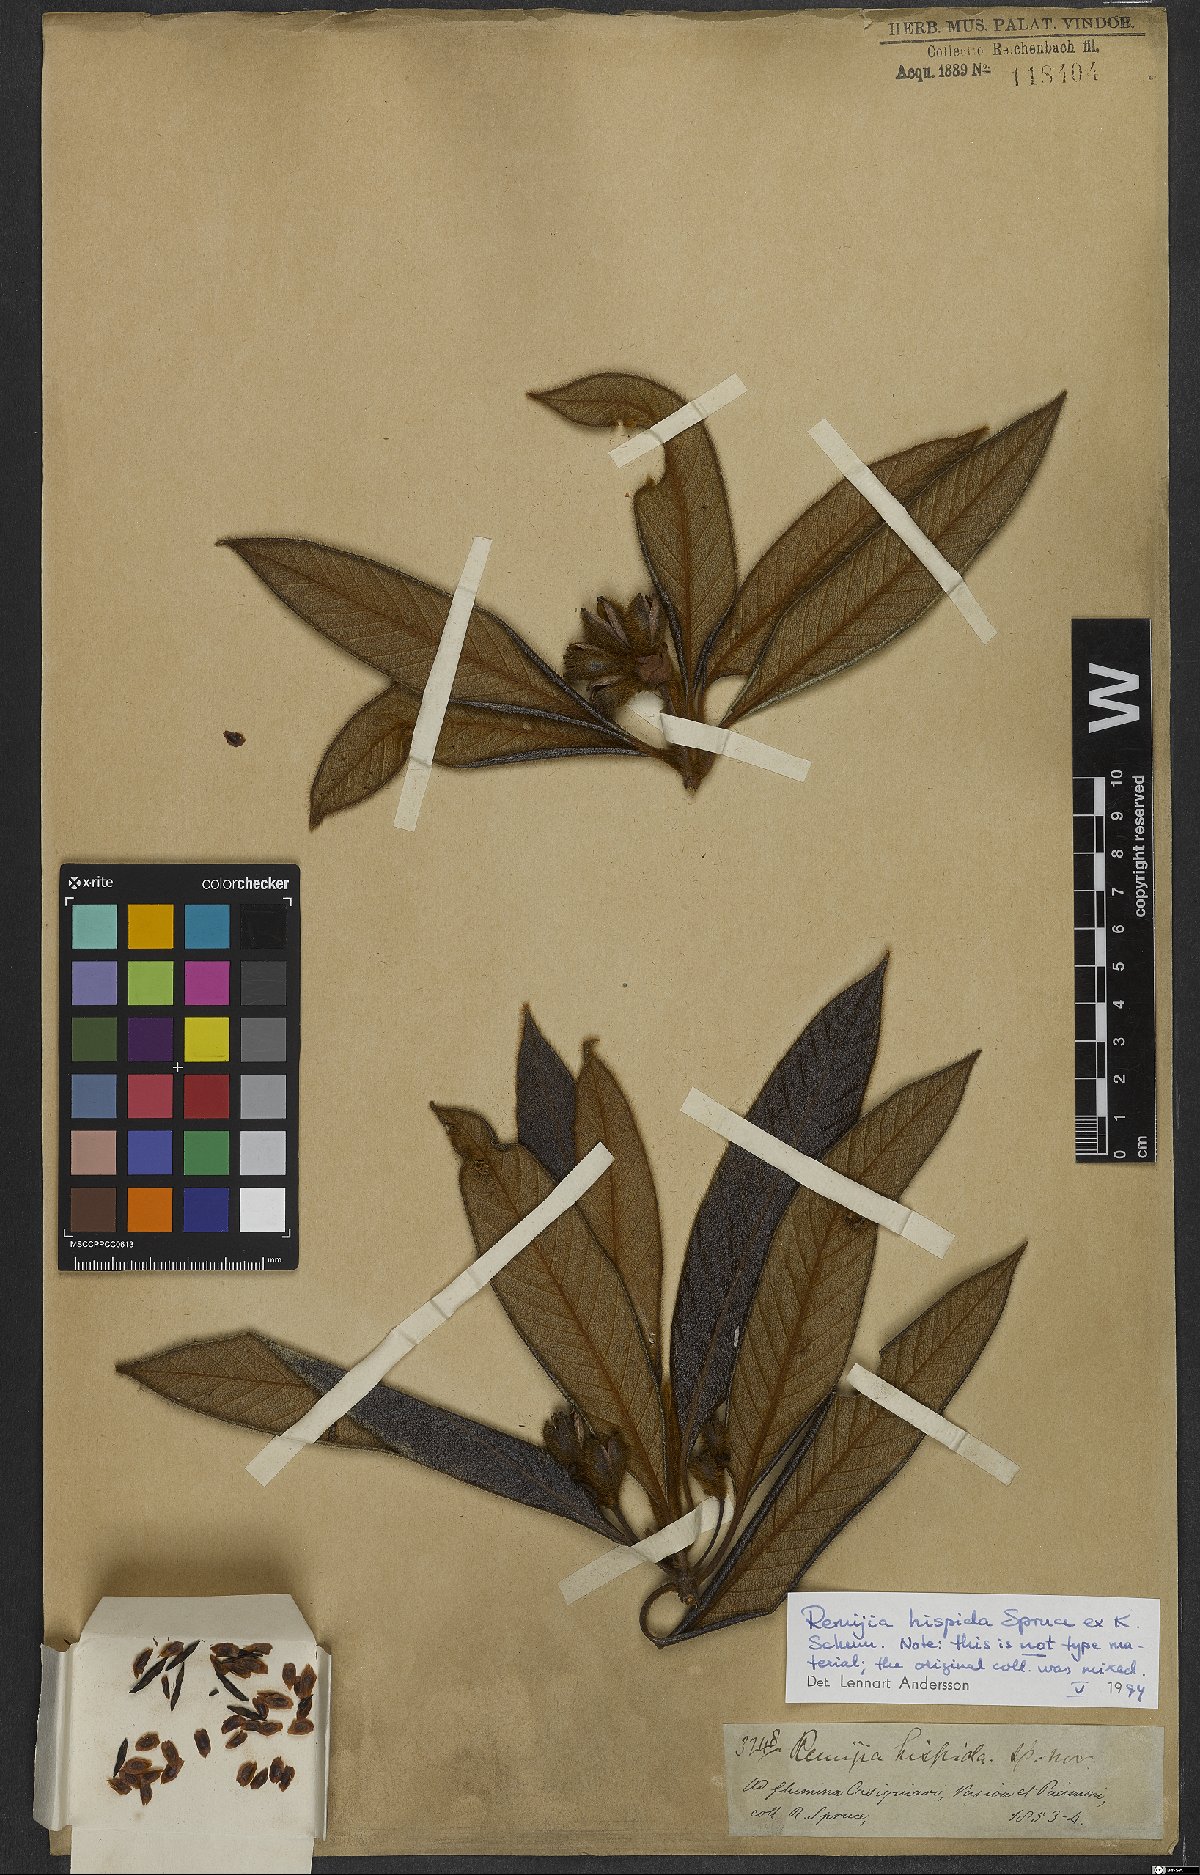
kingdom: Plantae
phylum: Tracheophyta
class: Magnoliopsida
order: Gentianales
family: Rubiaceae
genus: Remijia
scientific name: Remijia hispida
